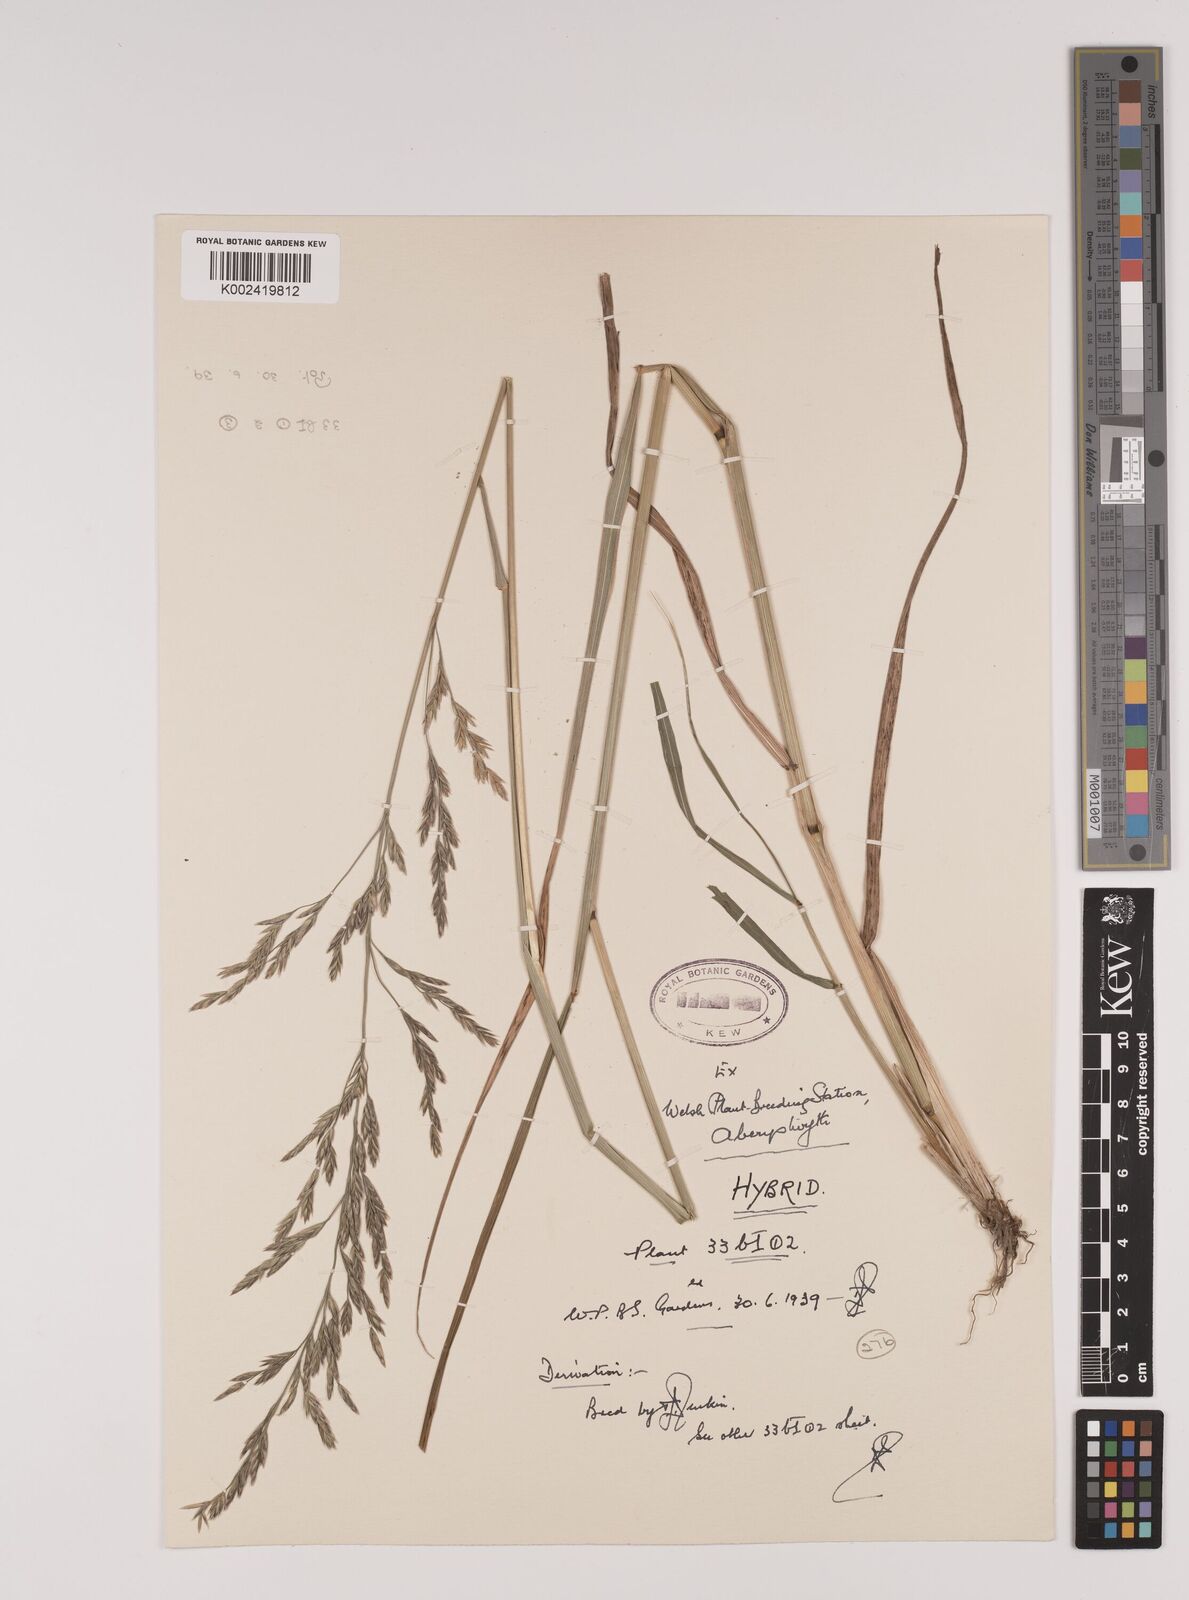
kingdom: Plantae
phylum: Tracheophyta
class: Liliopsida
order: Poales
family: Poaceae
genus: Festuca
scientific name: Festuca rubra
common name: Red fescue
